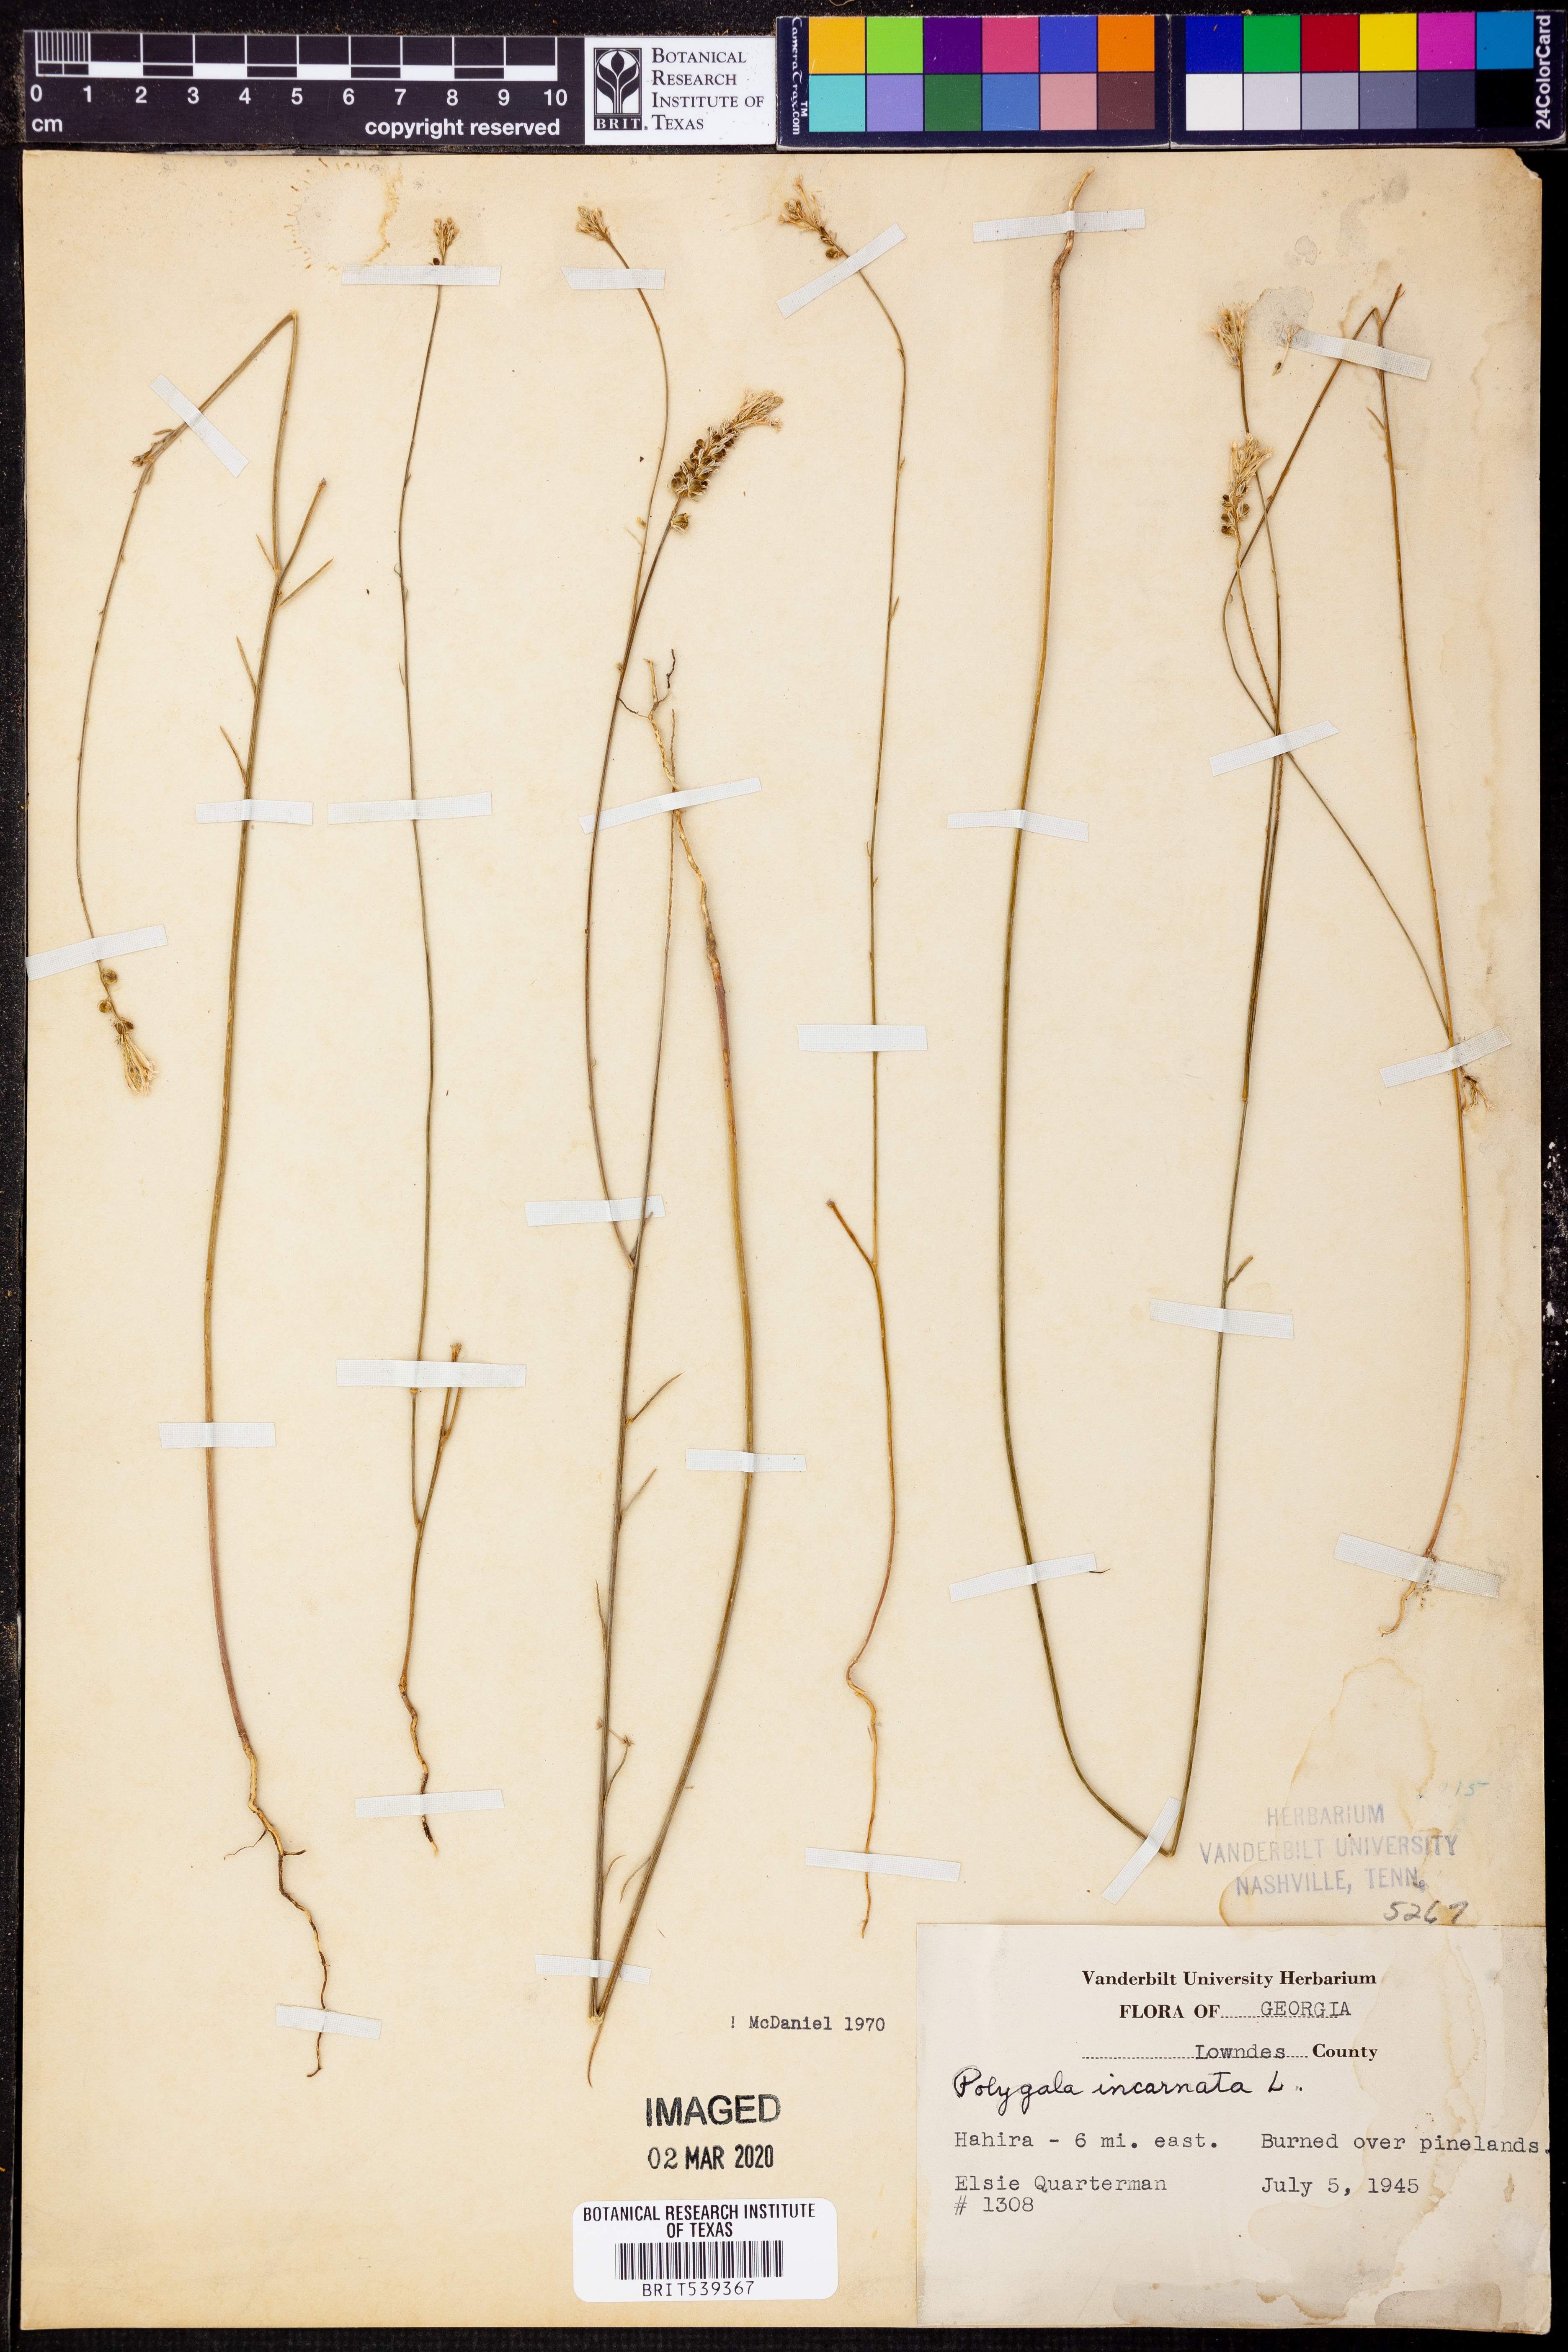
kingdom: Plantae
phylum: Tracheophyta
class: Magnoliopsida
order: Fabales
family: Polygalaceae
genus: Polygala
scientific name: Polygala incarnata
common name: Pink milkwort
